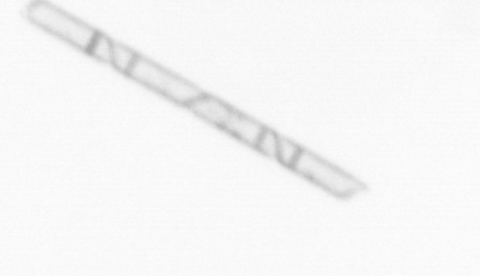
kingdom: Chromista
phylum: Ochrophyta
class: Bacillariophyceae
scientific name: Bacillariophyceae
